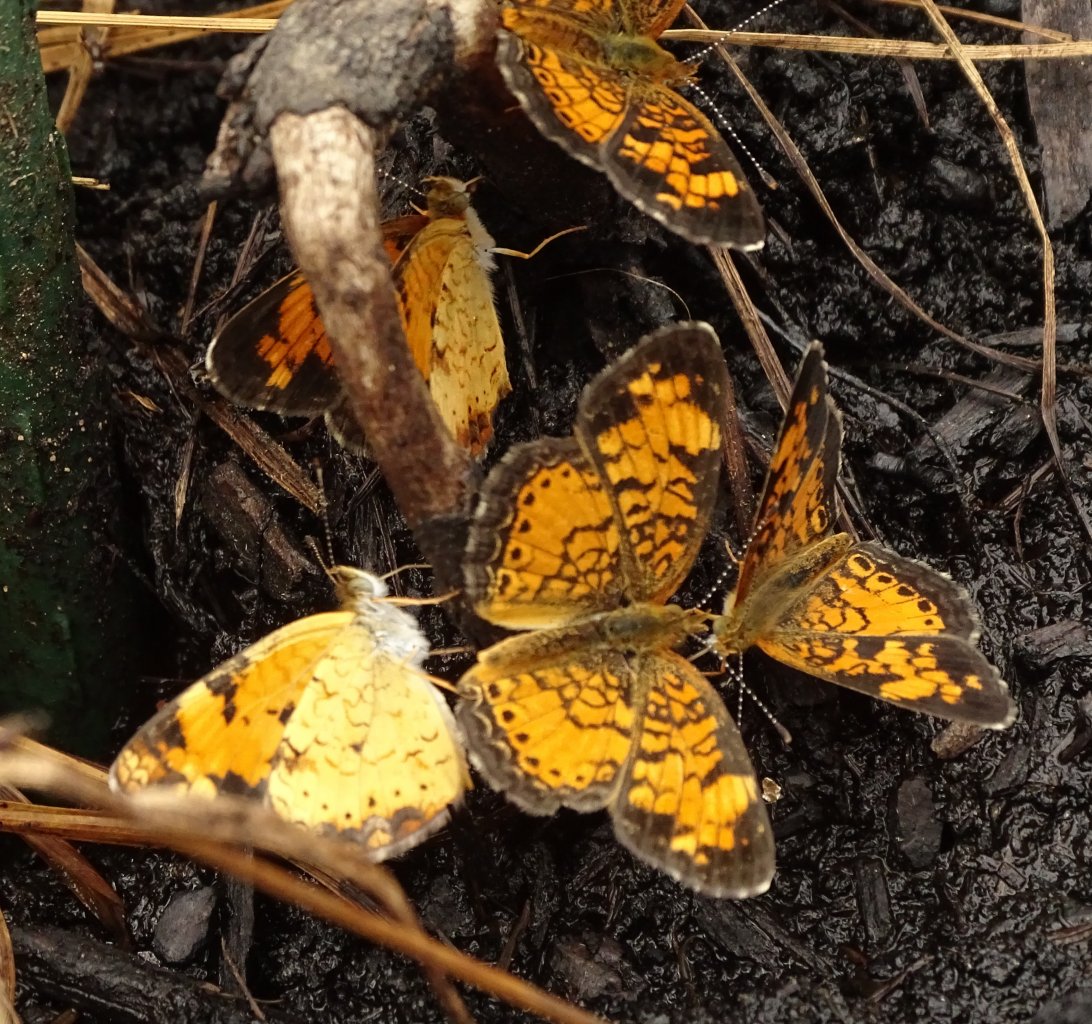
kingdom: Animalia
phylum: Arthropoda
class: Insecta
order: Lepidoptera
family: Nymphalidae
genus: Phyciodes
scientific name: Phyciodes tharos
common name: Pearl Crescent
